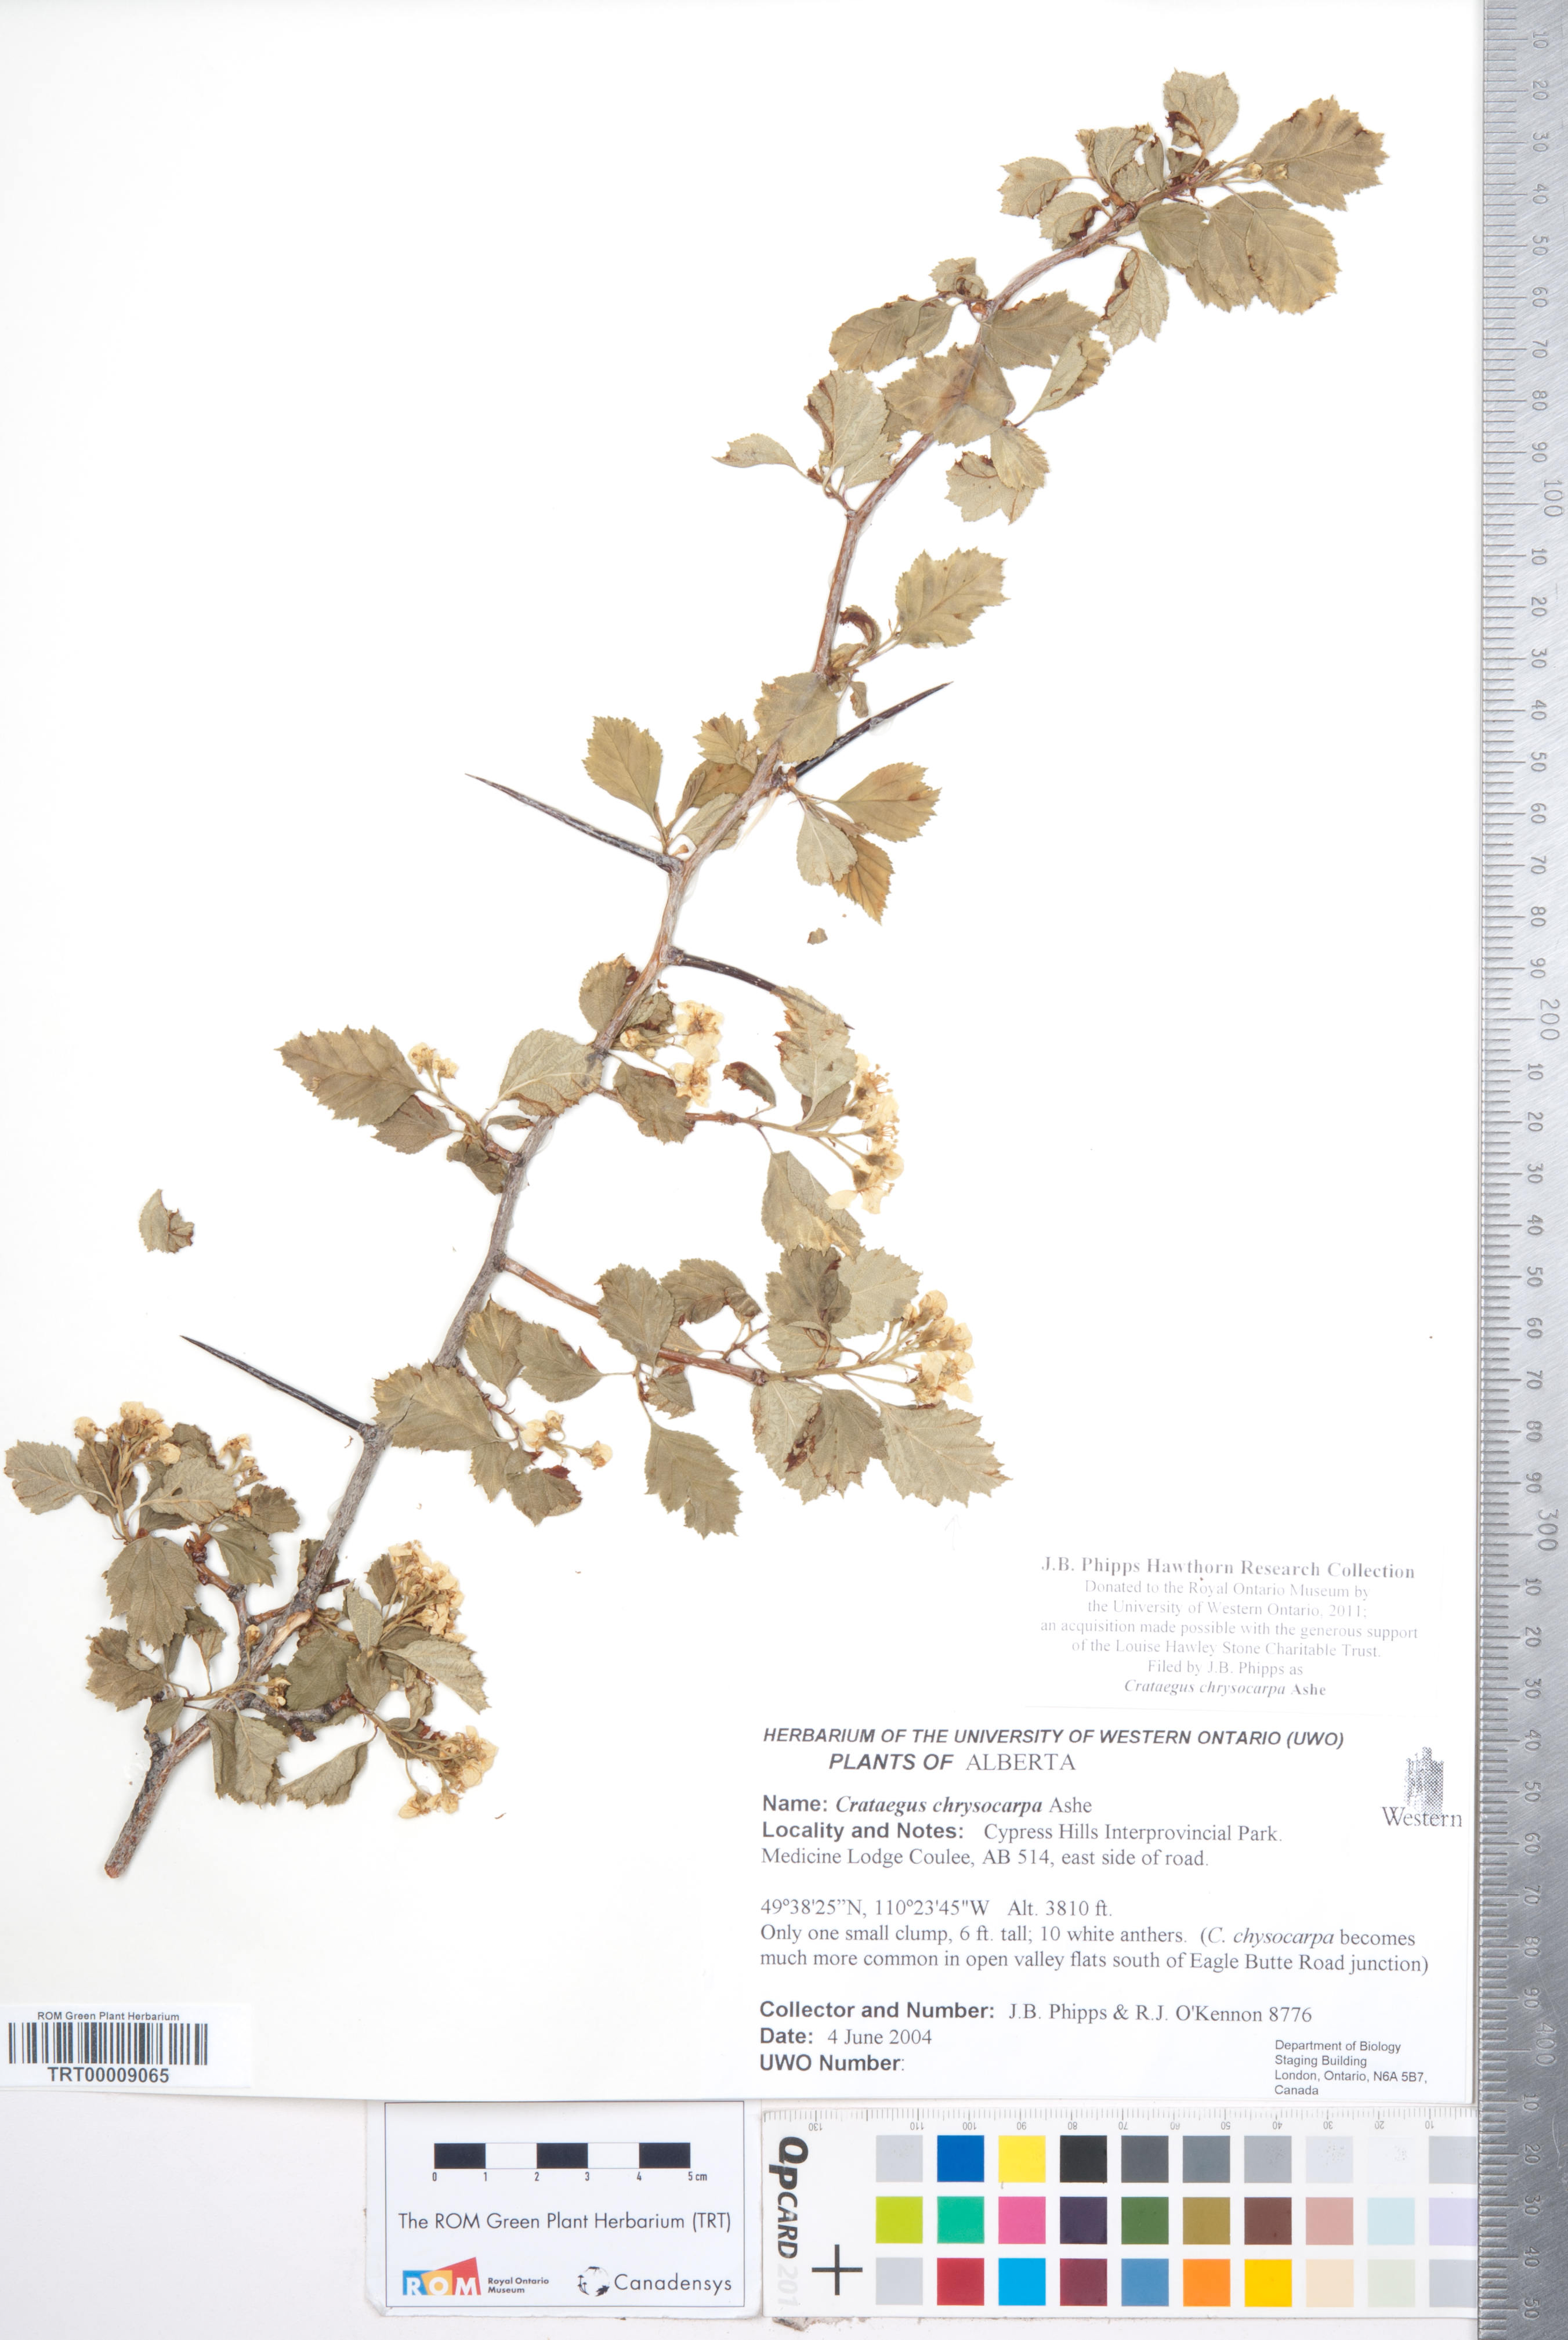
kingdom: Plantae
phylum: Tracheophyta
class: Magnoliopsida
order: Rosales
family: Rosaceae
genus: Crataegus
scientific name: Crataegus chrysocarpa
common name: Fire-berry hawthorn
